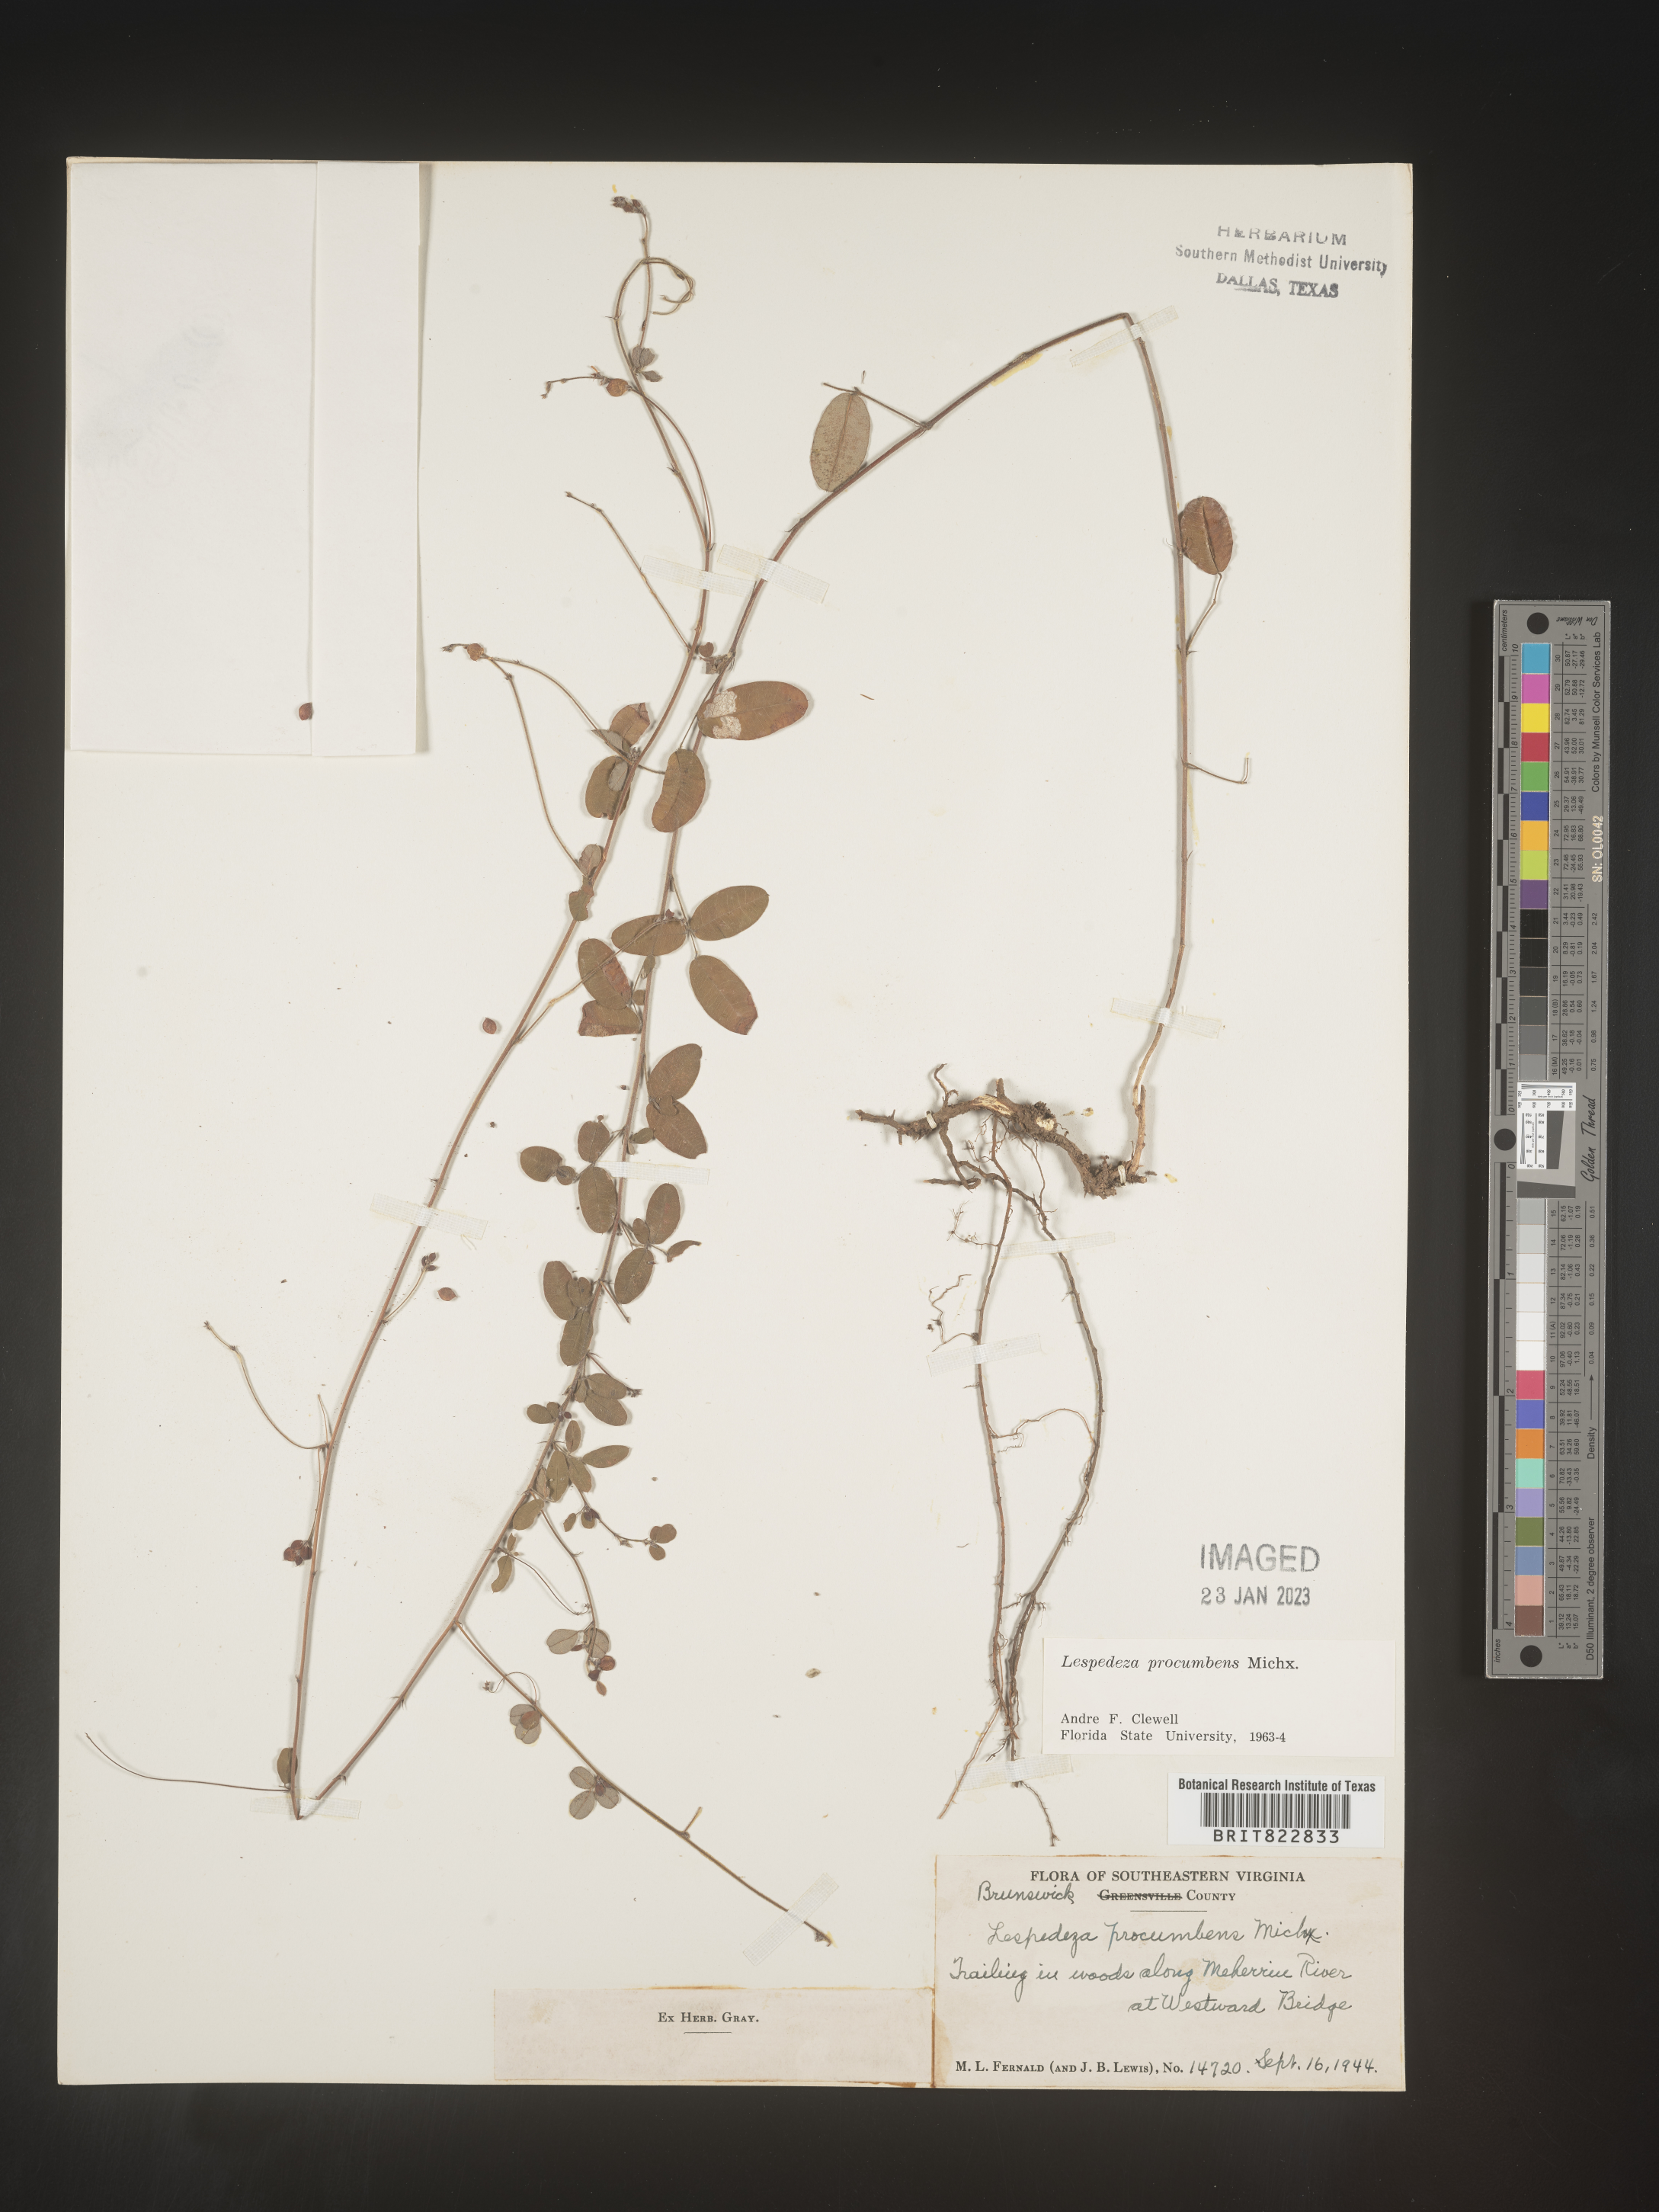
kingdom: Plantae
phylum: Tracheophyta
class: Magnoliopsida
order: Fabales
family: Fabaceae
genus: Lespedeza
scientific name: Lespedeza procumbens
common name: Downy trailing bush-clover
